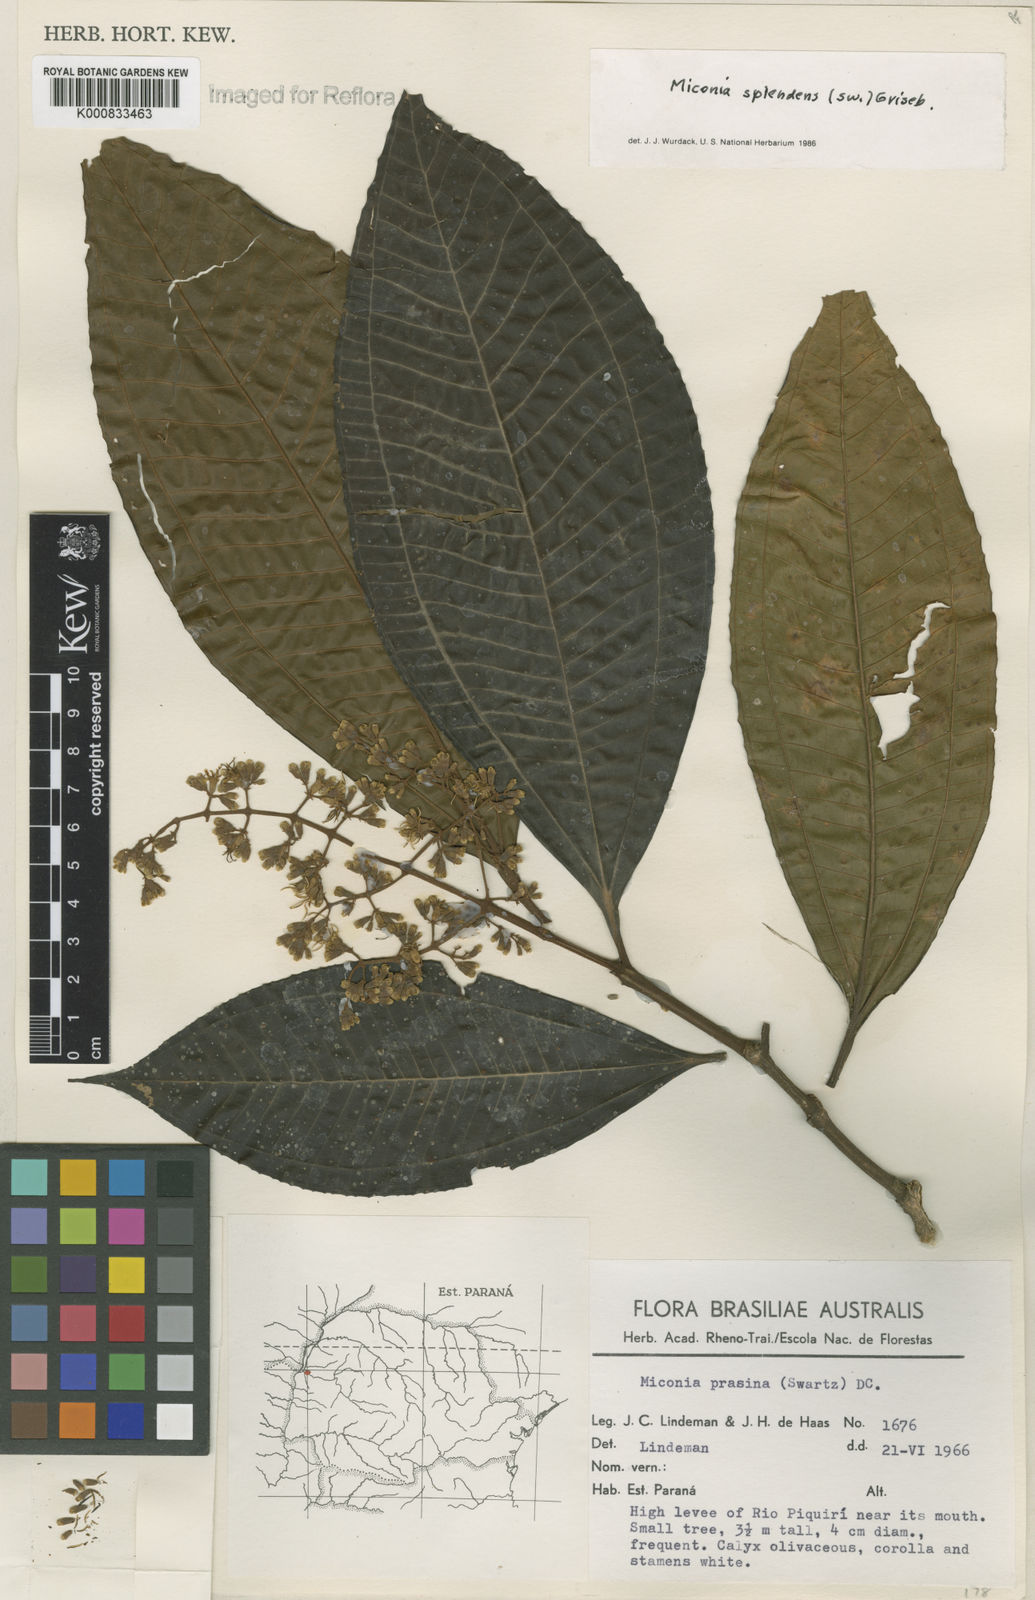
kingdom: Plantae
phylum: Tracheophyta
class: Magnoliopsida
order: Myrtales
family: Melastomataceae
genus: Miconia
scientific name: Miconia splendens
